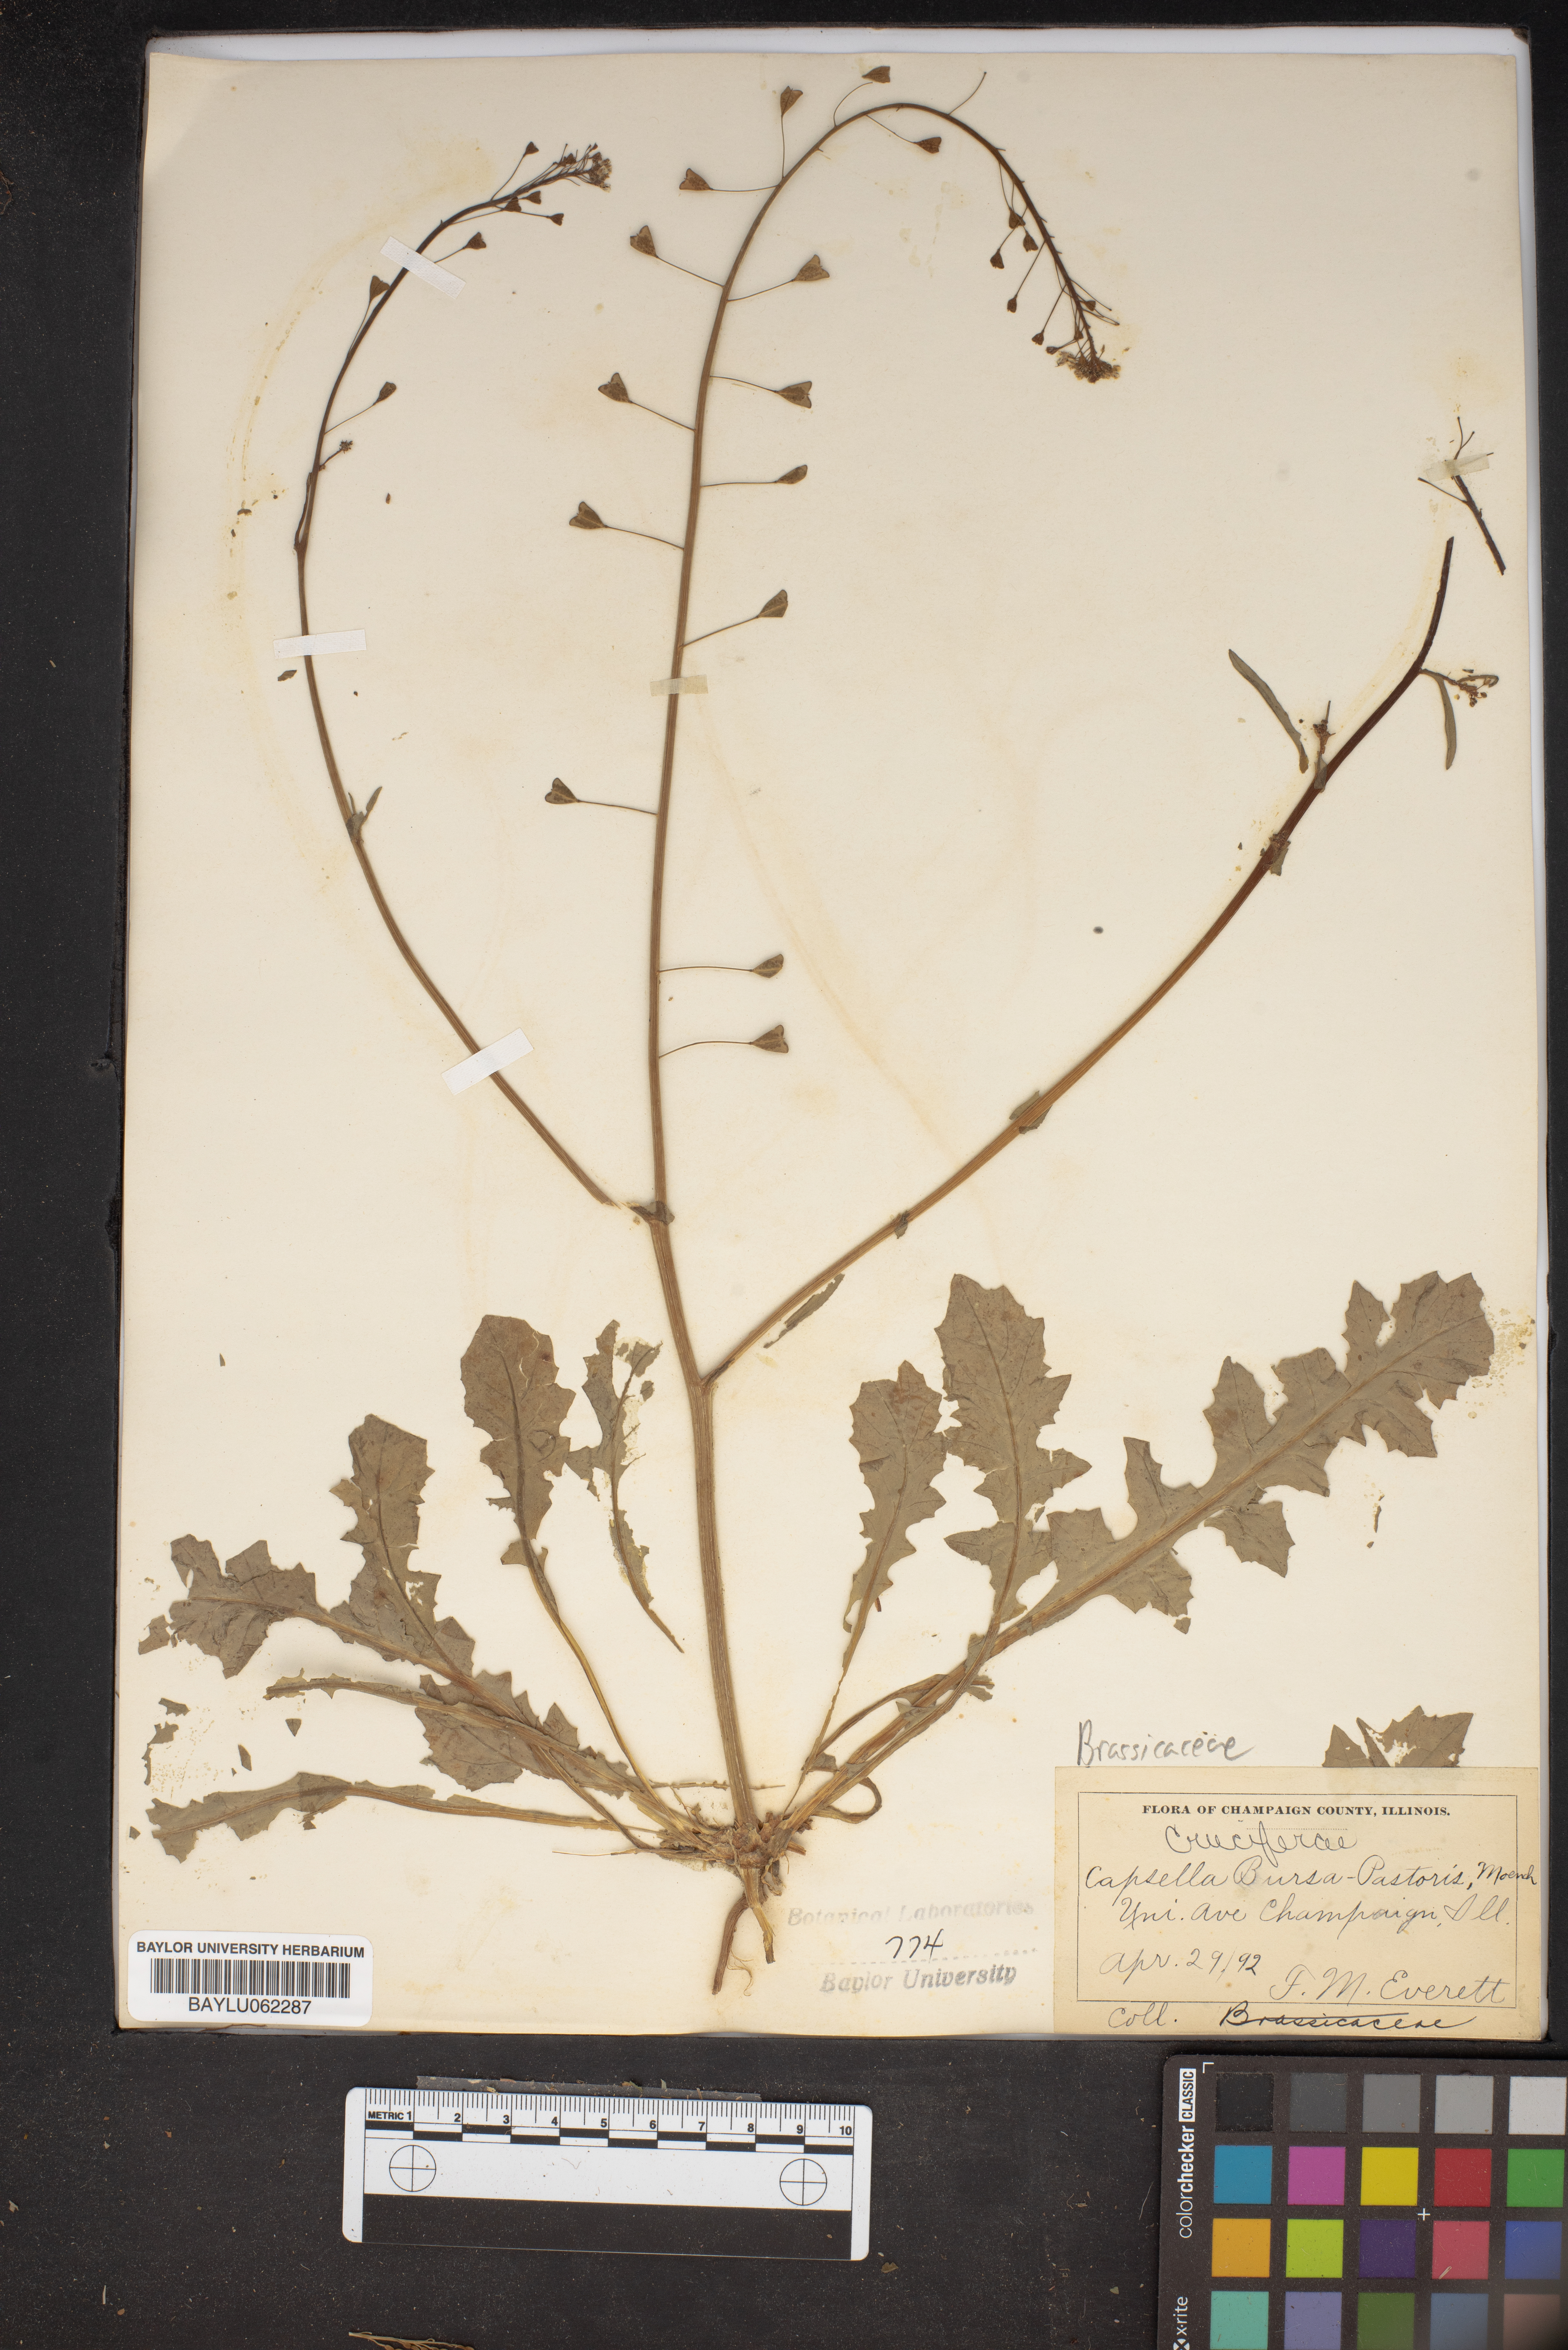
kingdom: Plantae
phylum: Tracheophyta
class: Magnoliopsida
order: Brassicales
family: Brassicaceae
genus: Capsella
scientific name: Capsella bursa-pastoris
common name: Shepherd's purse
